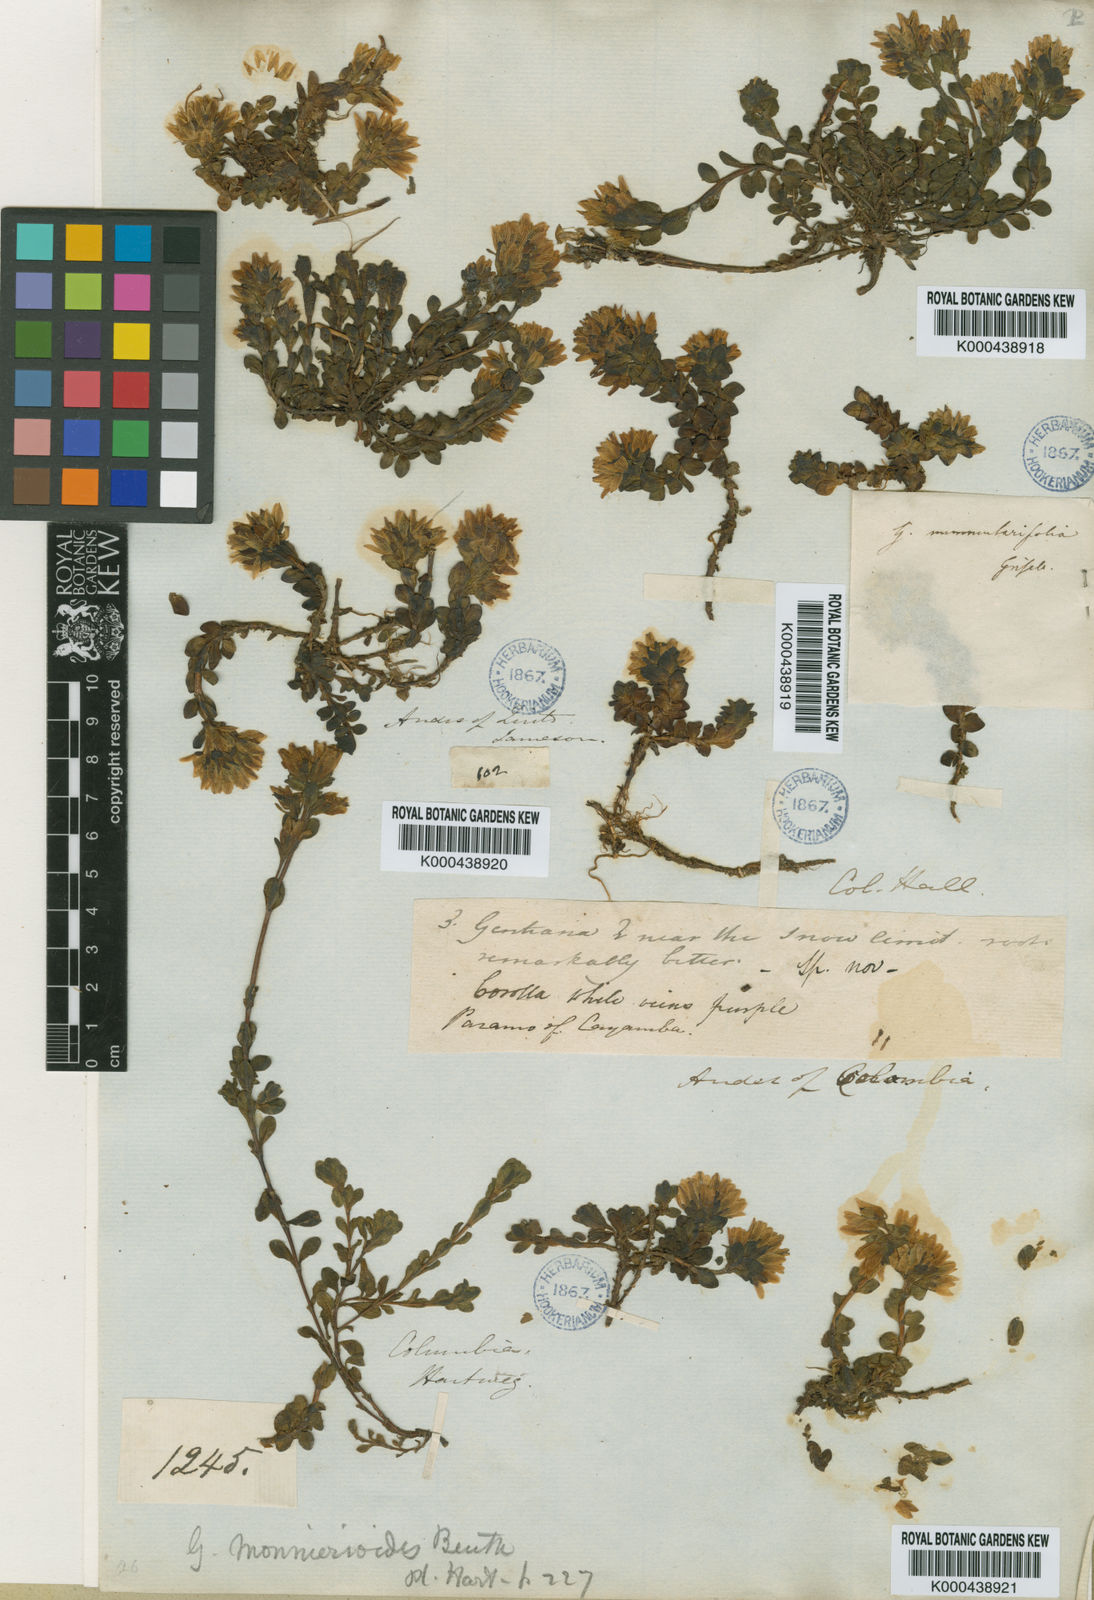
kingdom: Plantae
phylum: Tracheophyta
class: Magnoliopsida
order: Gentianales
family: Gentianaceae
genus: Gentianella
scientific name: Gentianella nummulariifolia
